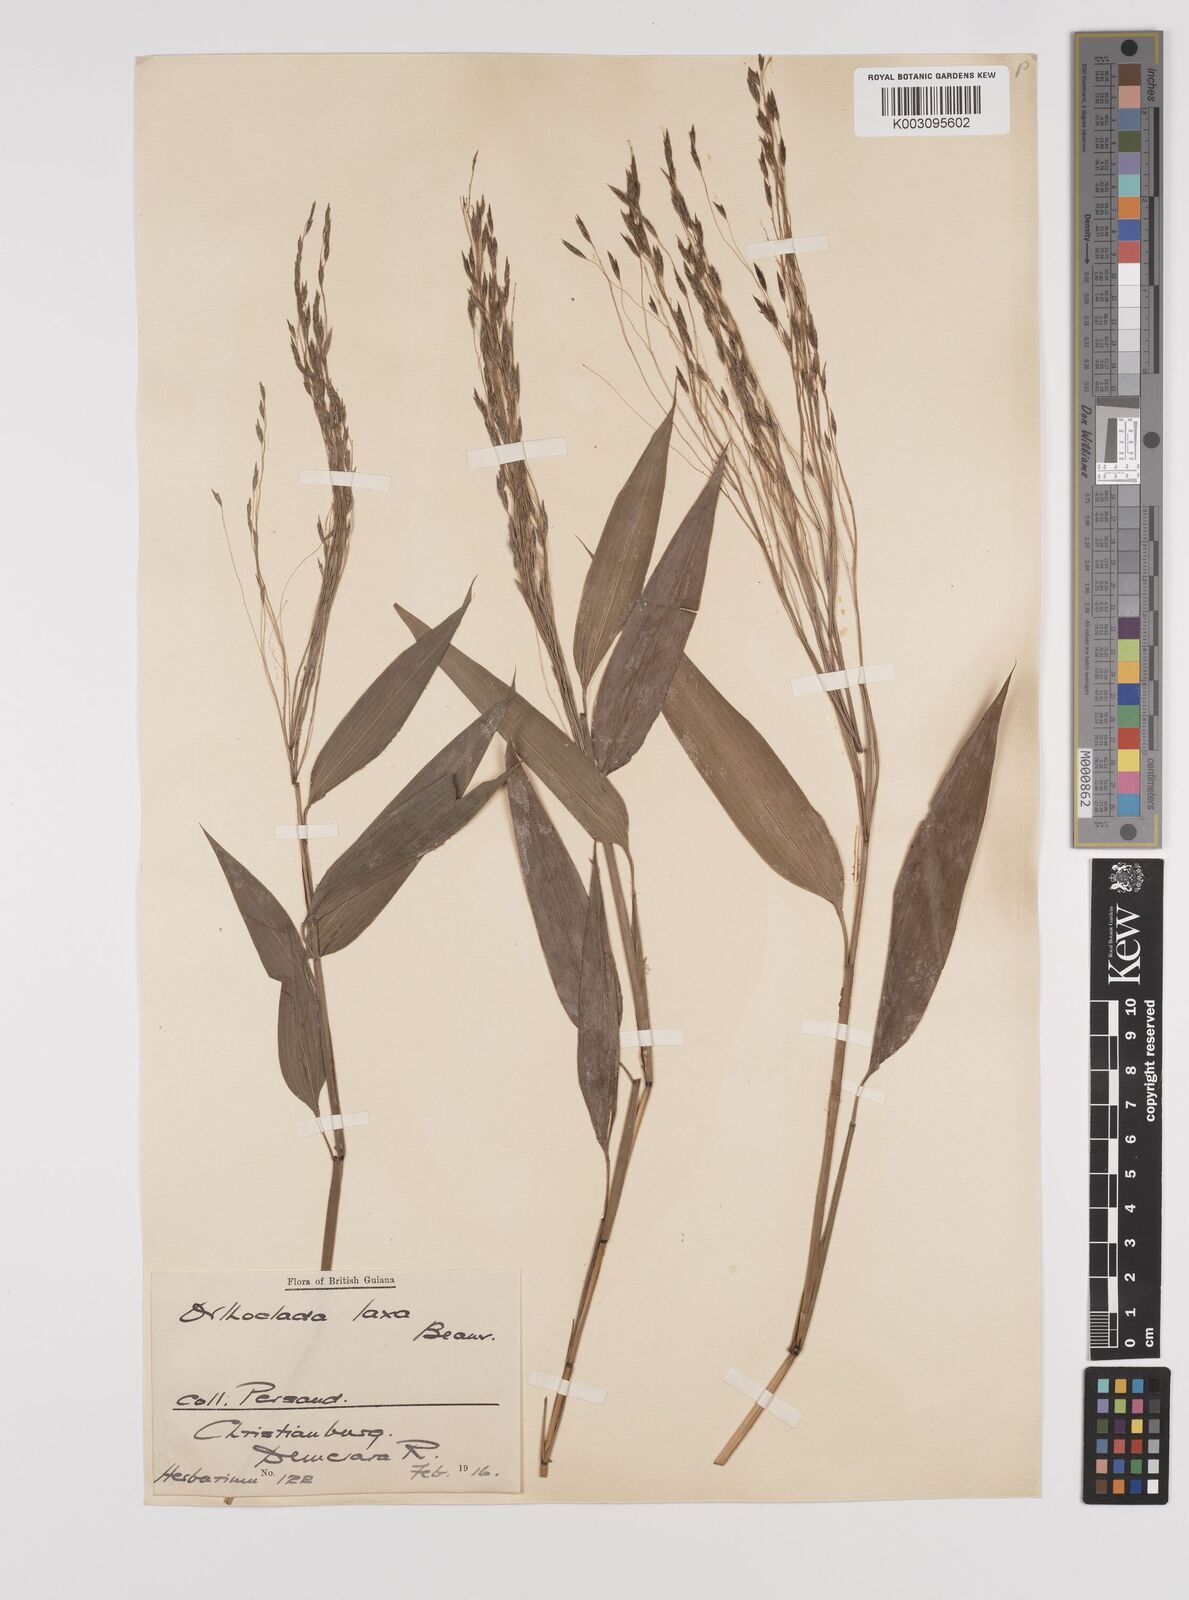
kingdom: Plantae
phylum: Tracheophyta
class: Liliopsida
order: Poales
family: Poaceae
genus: Orthoclada
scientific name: Orthoclada laxa
